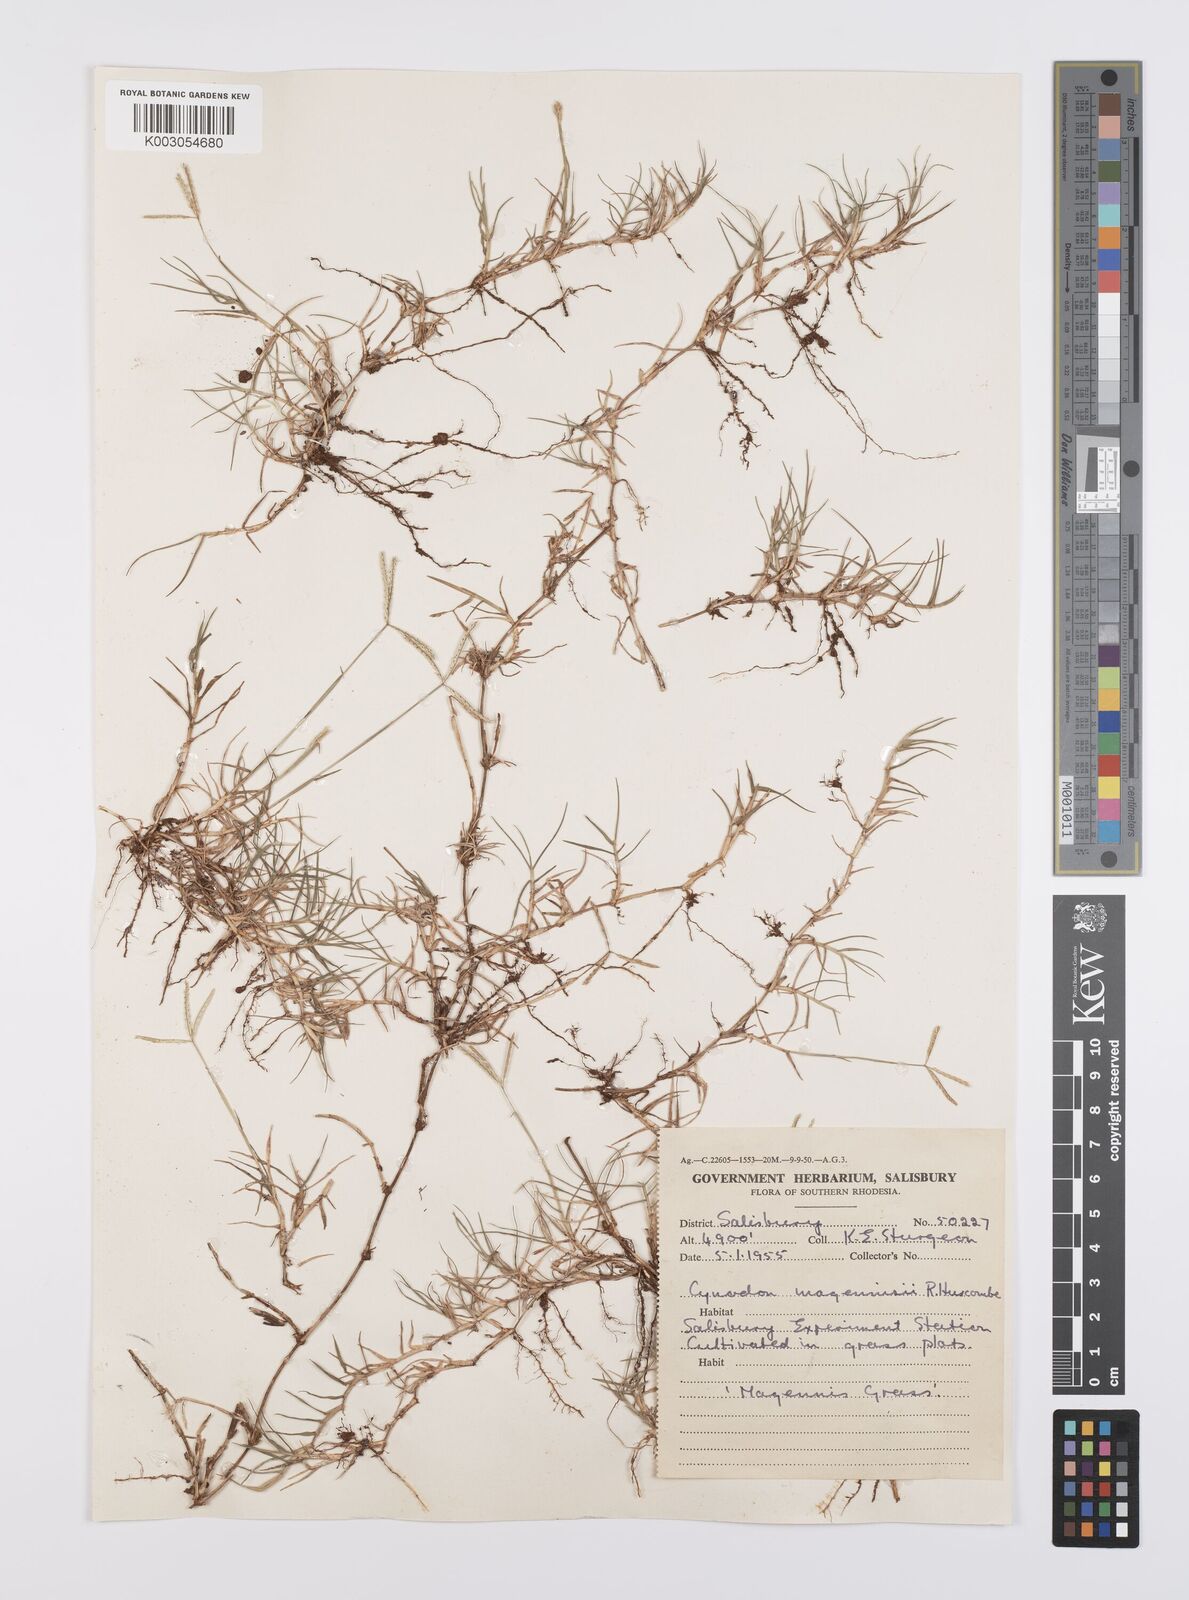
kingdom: Plantae
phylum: Tracheophyta
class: Liliopsida
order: Poales
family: Poaceae
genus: Cynodon
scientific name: Cynodon magennisii
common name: Bermudagrass
